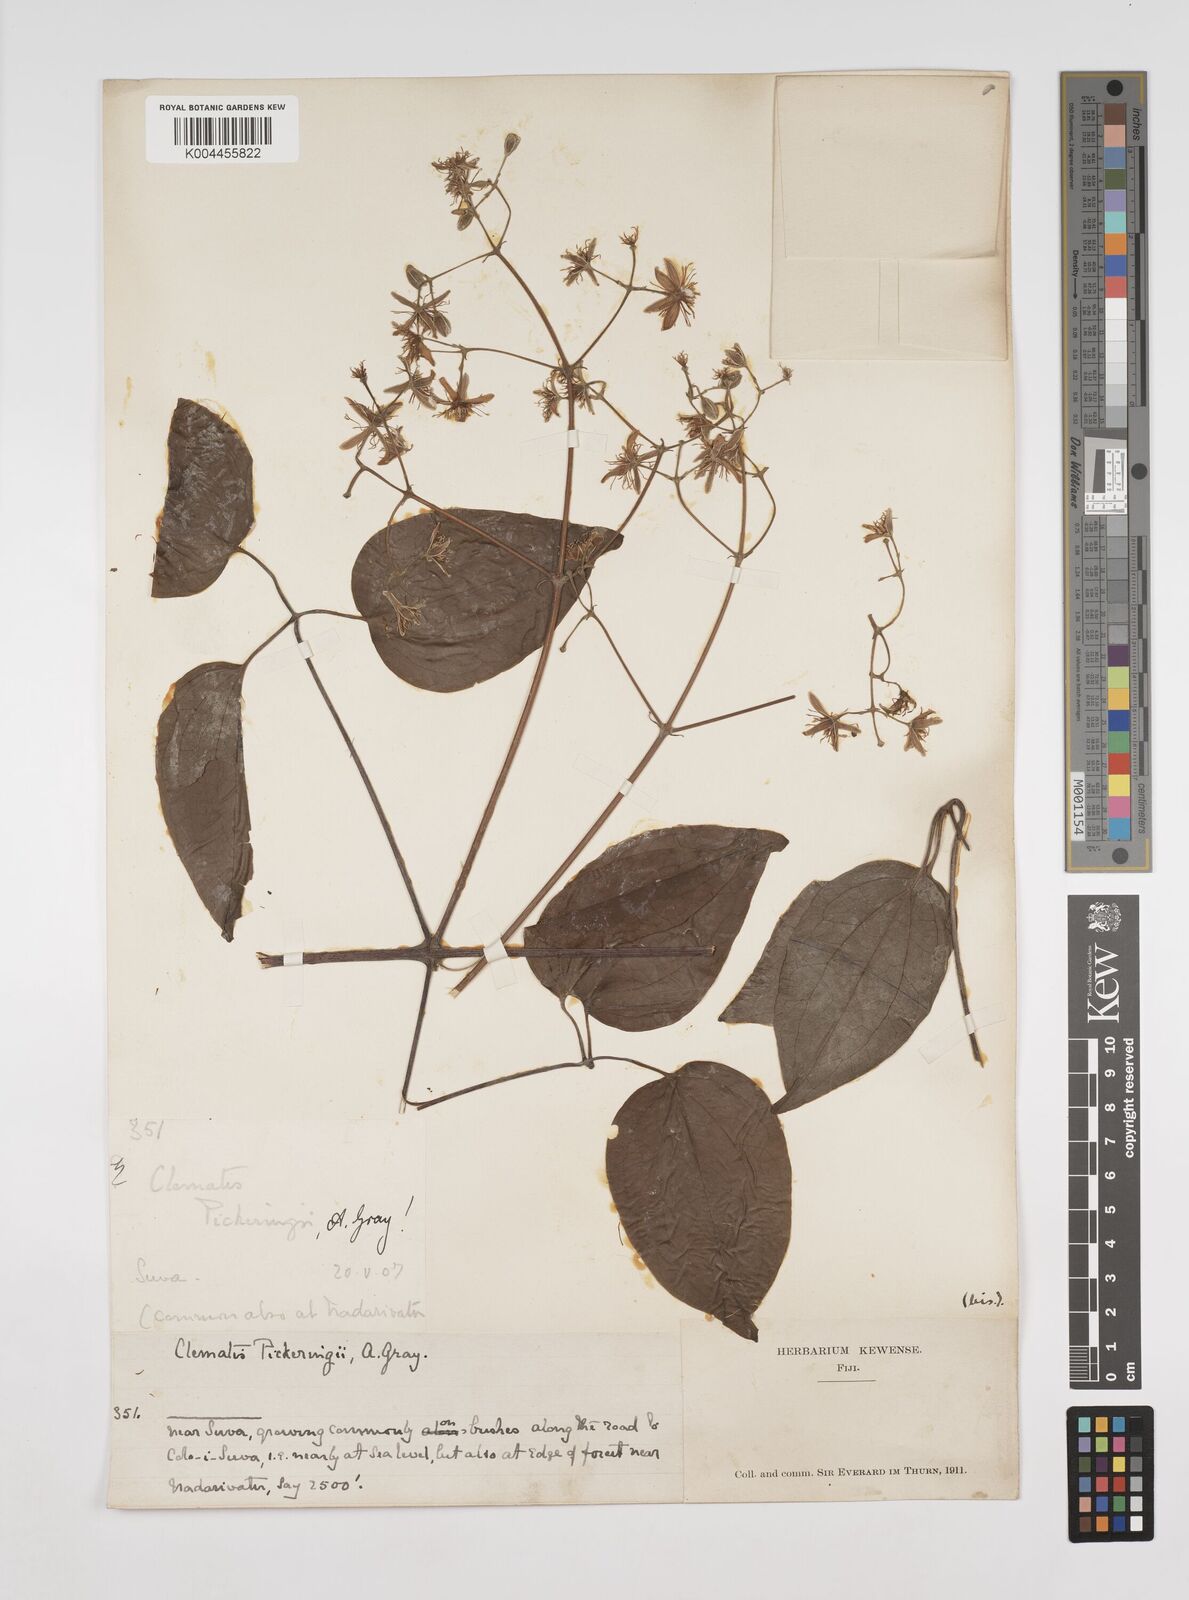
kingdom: Plantae
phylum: Tracheophyta
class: Magnoliopsida
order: Ranunculales
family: Ranunculaceae
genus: Clematis
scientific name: Clematis pickeringii
